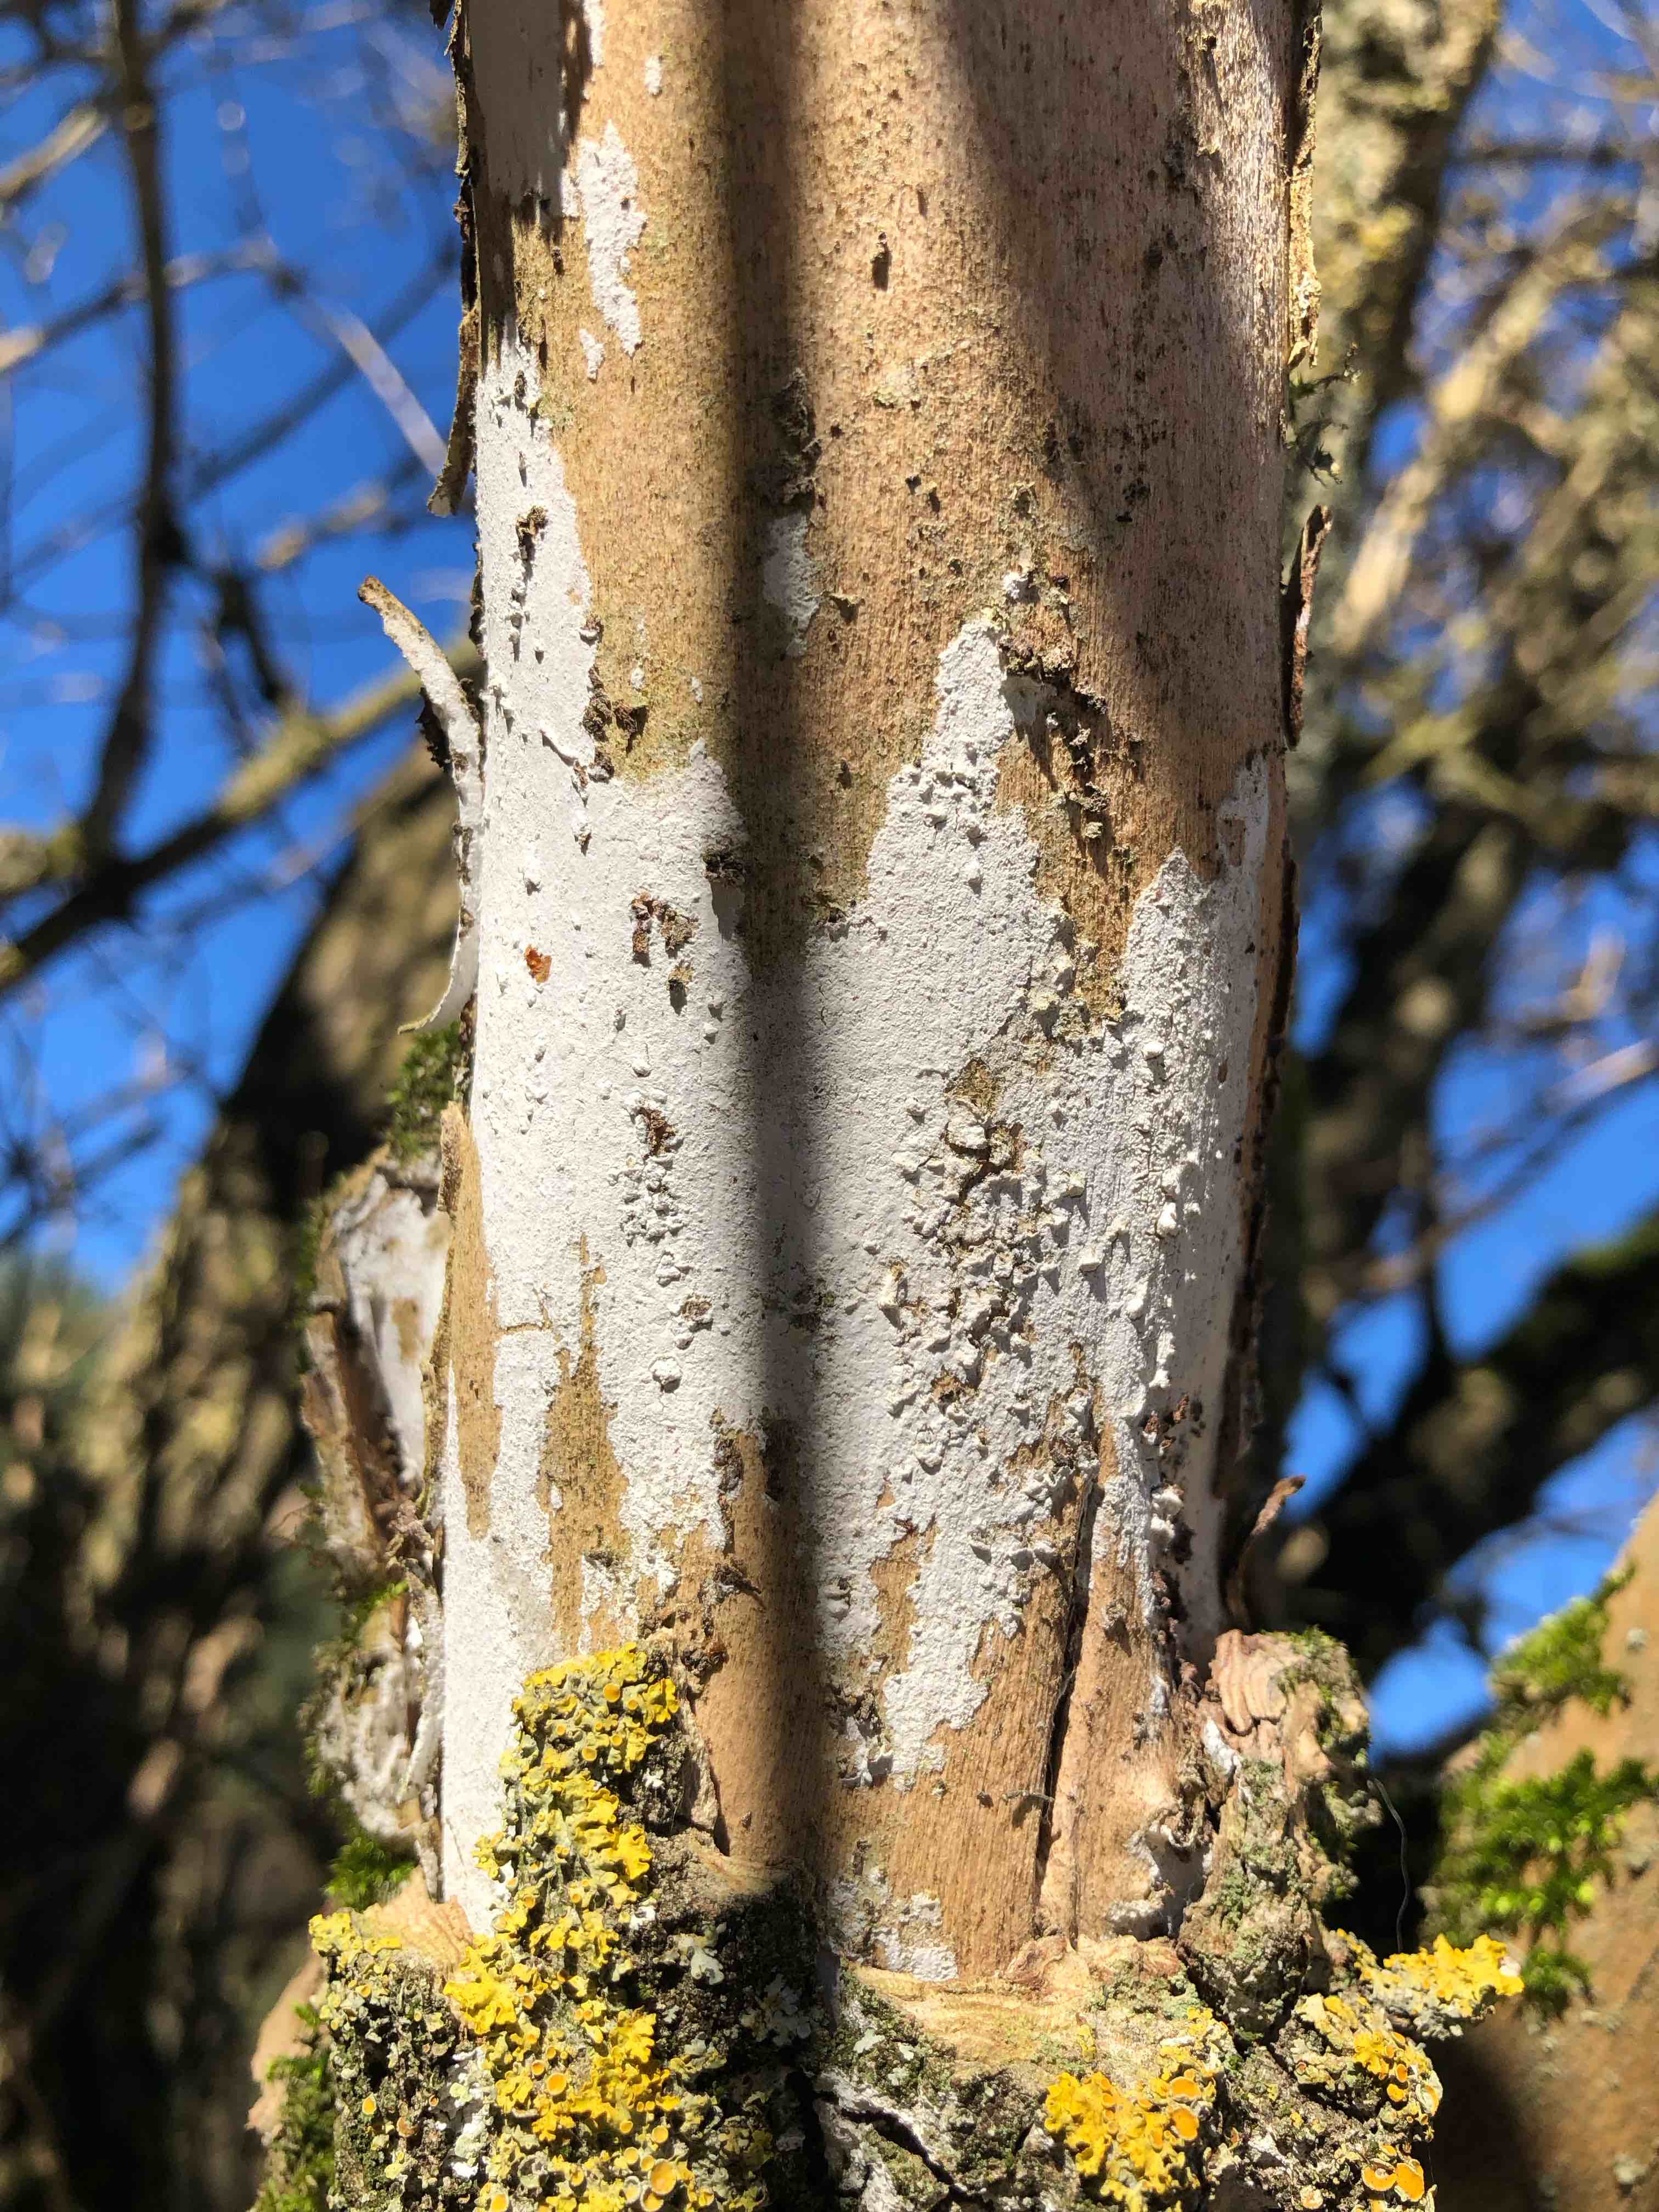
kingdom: Fungi
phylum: Basidiomycota
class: Agaricomycetes
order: Corticiales
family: Corticiaceae
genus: Lyomyces
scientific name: Lyomyces sambuci
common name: almindelig hyldehinde
